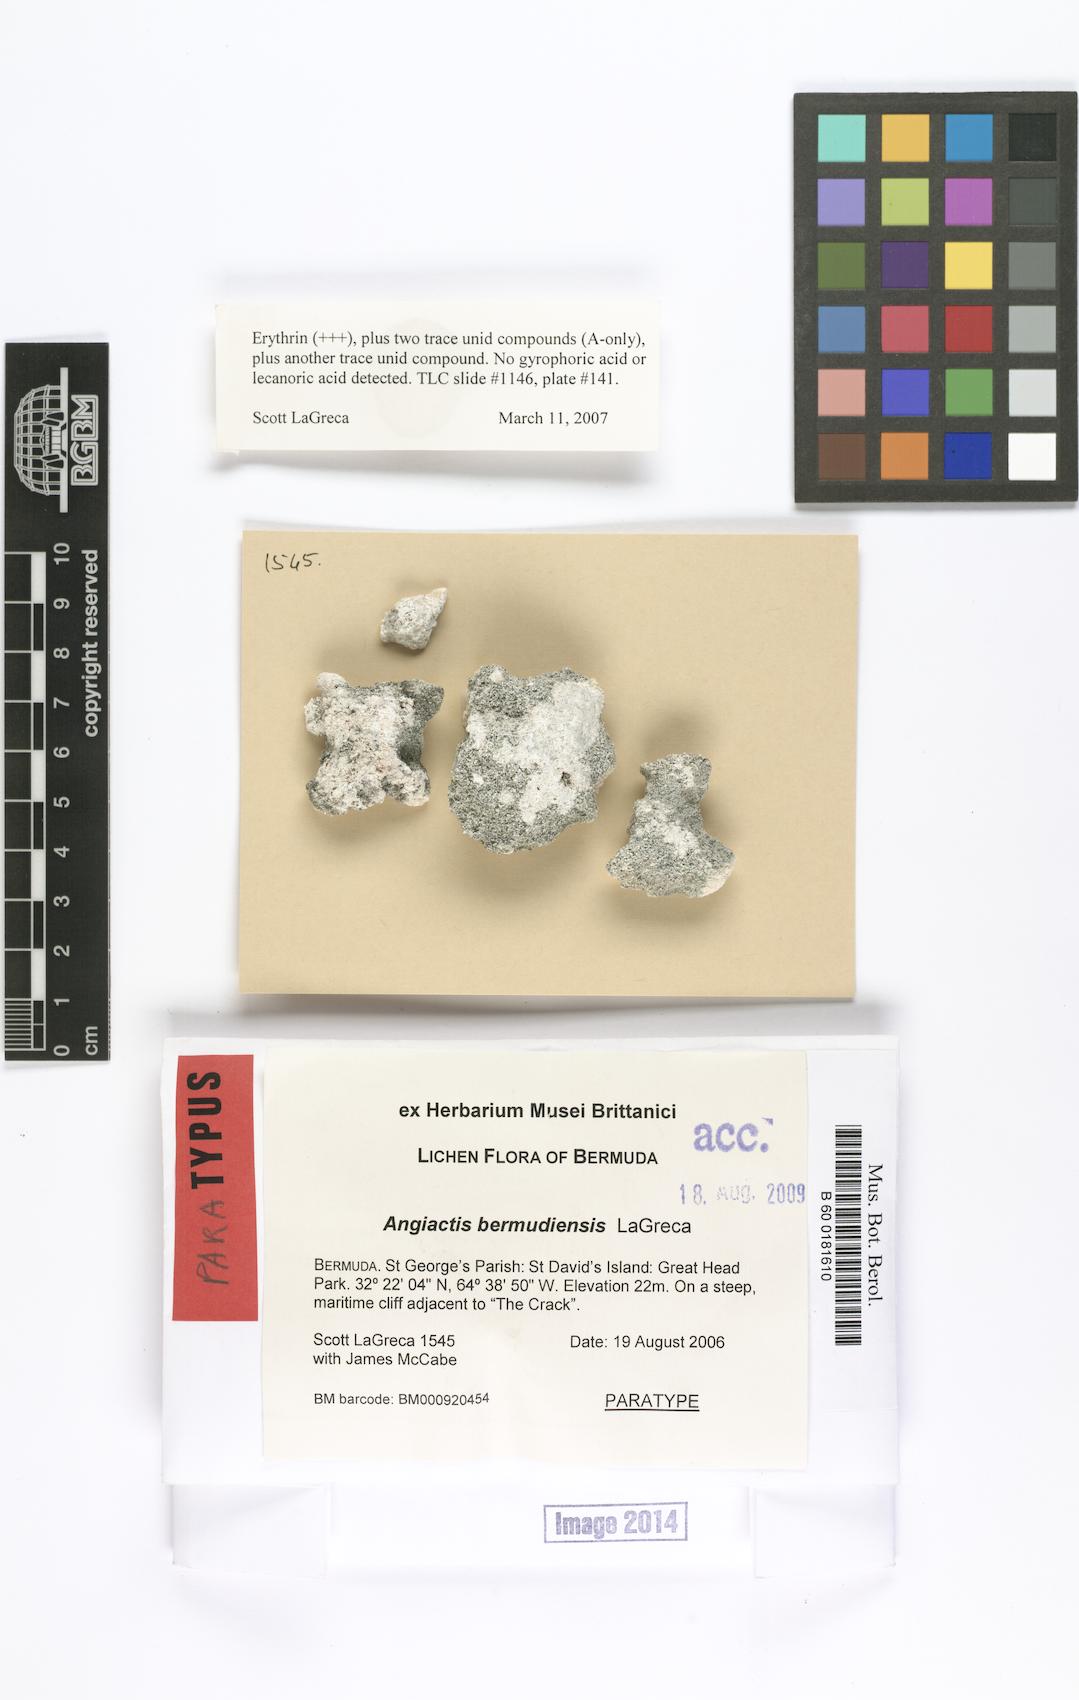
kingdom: Fungi
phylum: Ascomycota
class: Arthoniomycetes
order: Arthoniales
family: Roccellaceae
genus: Angiactis
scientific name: Angiactis bermudensis
